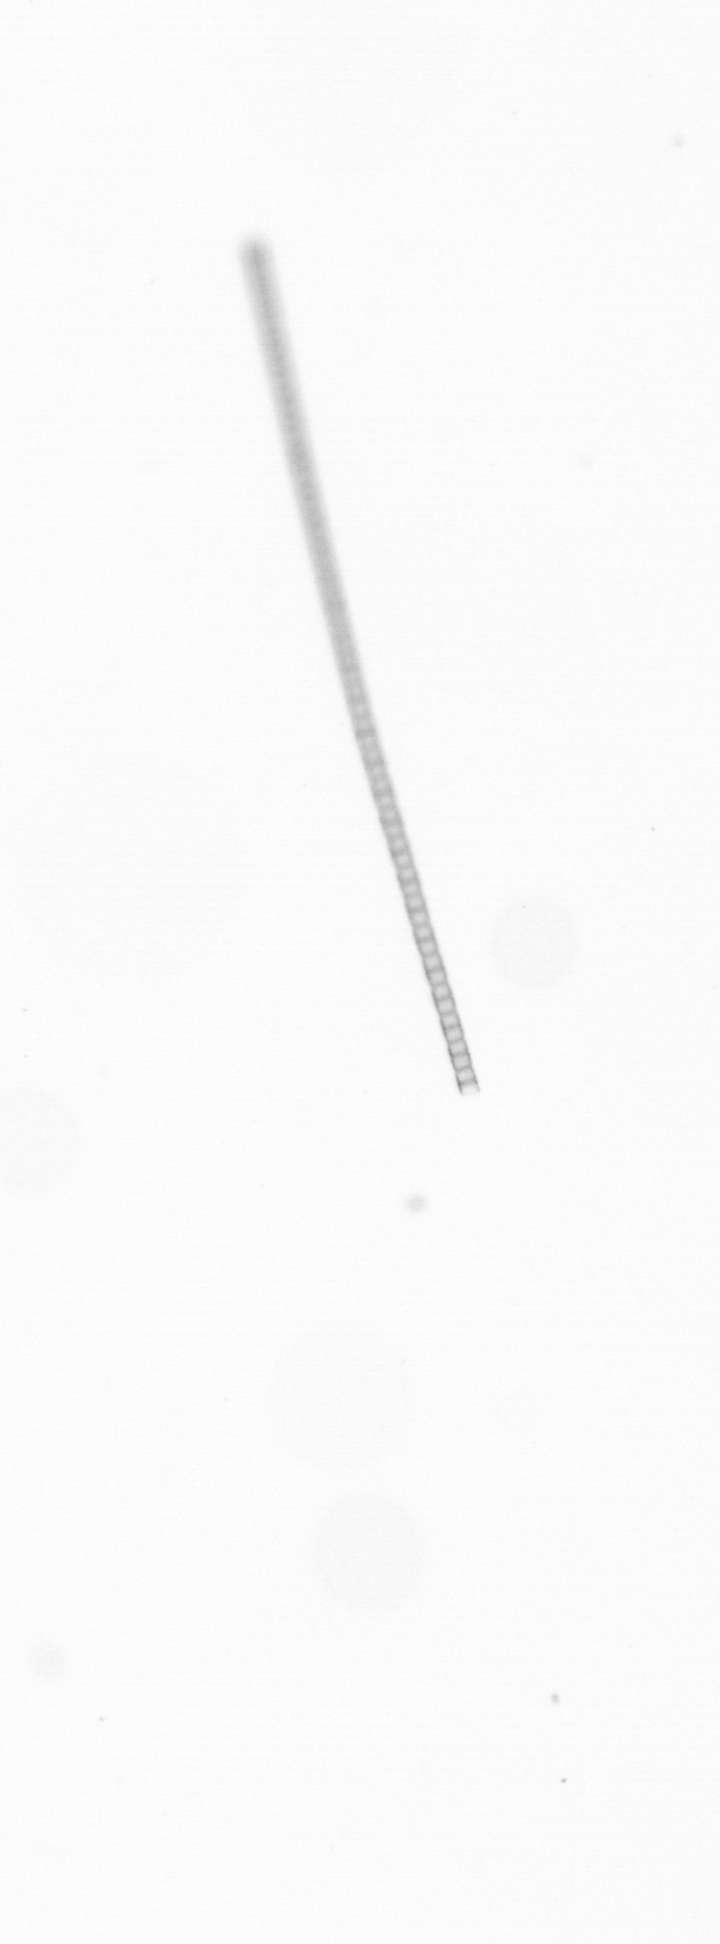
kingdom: Chromista
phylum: Ochrophyta
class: Bacillariophyceae
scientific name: Bacillariophyceae
